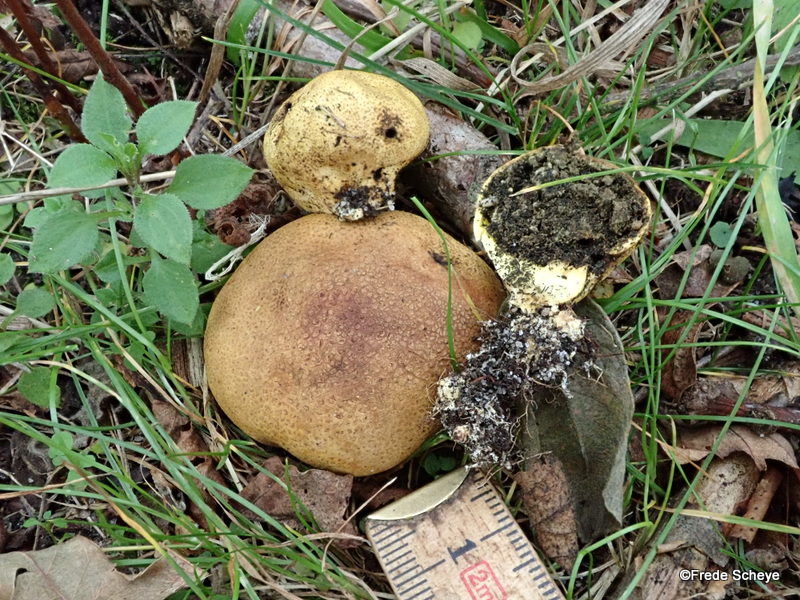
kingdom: Fungi
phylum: Basidiomycota
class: Agaricomycetes
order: Boletales
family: Sclerodermataceae
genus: Scleroderma
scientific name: Scleroderma
